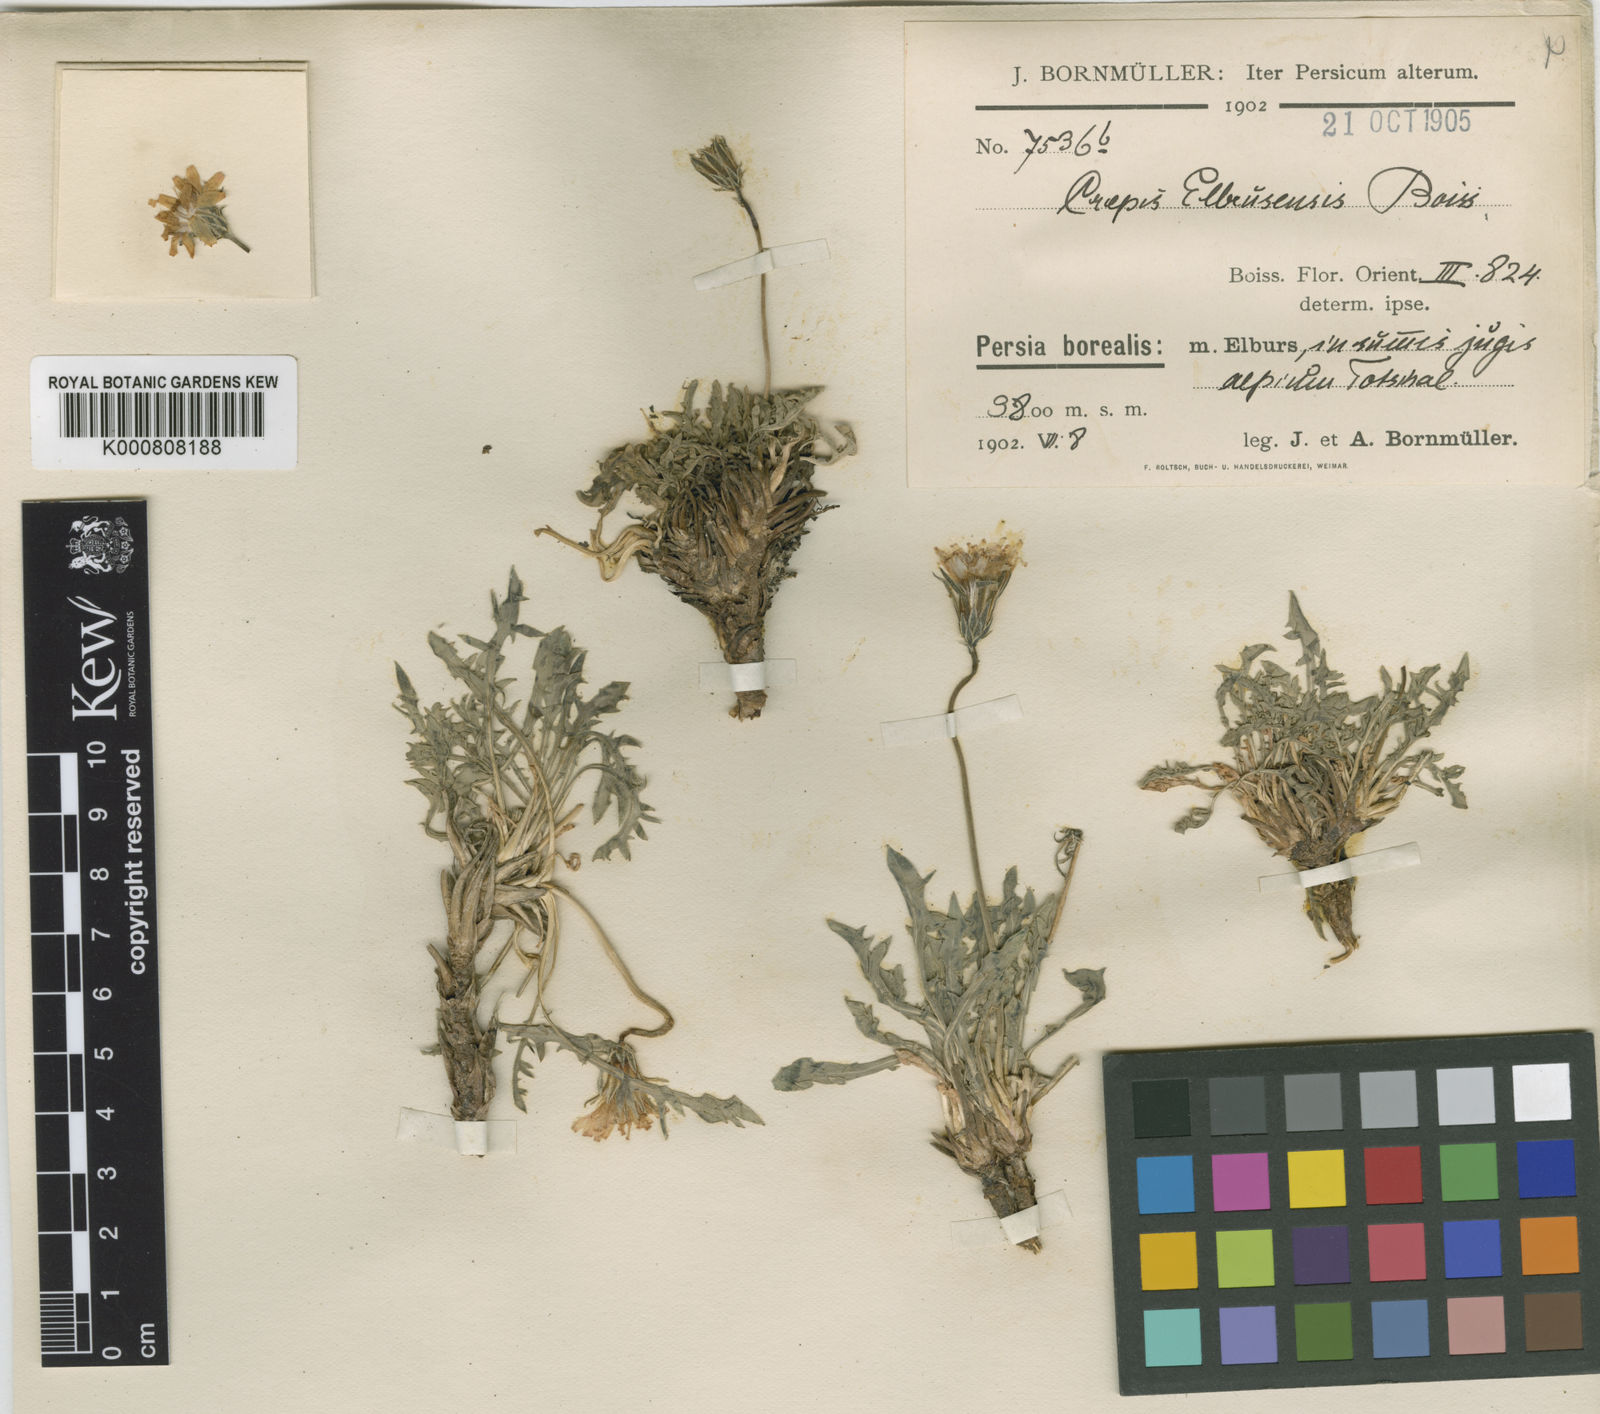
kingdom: Plantae
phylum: Tracheophyta
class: Magnoliopsida
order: Asterales
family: Asteraceae
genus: Crepis
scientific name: Crepis heterotricha
